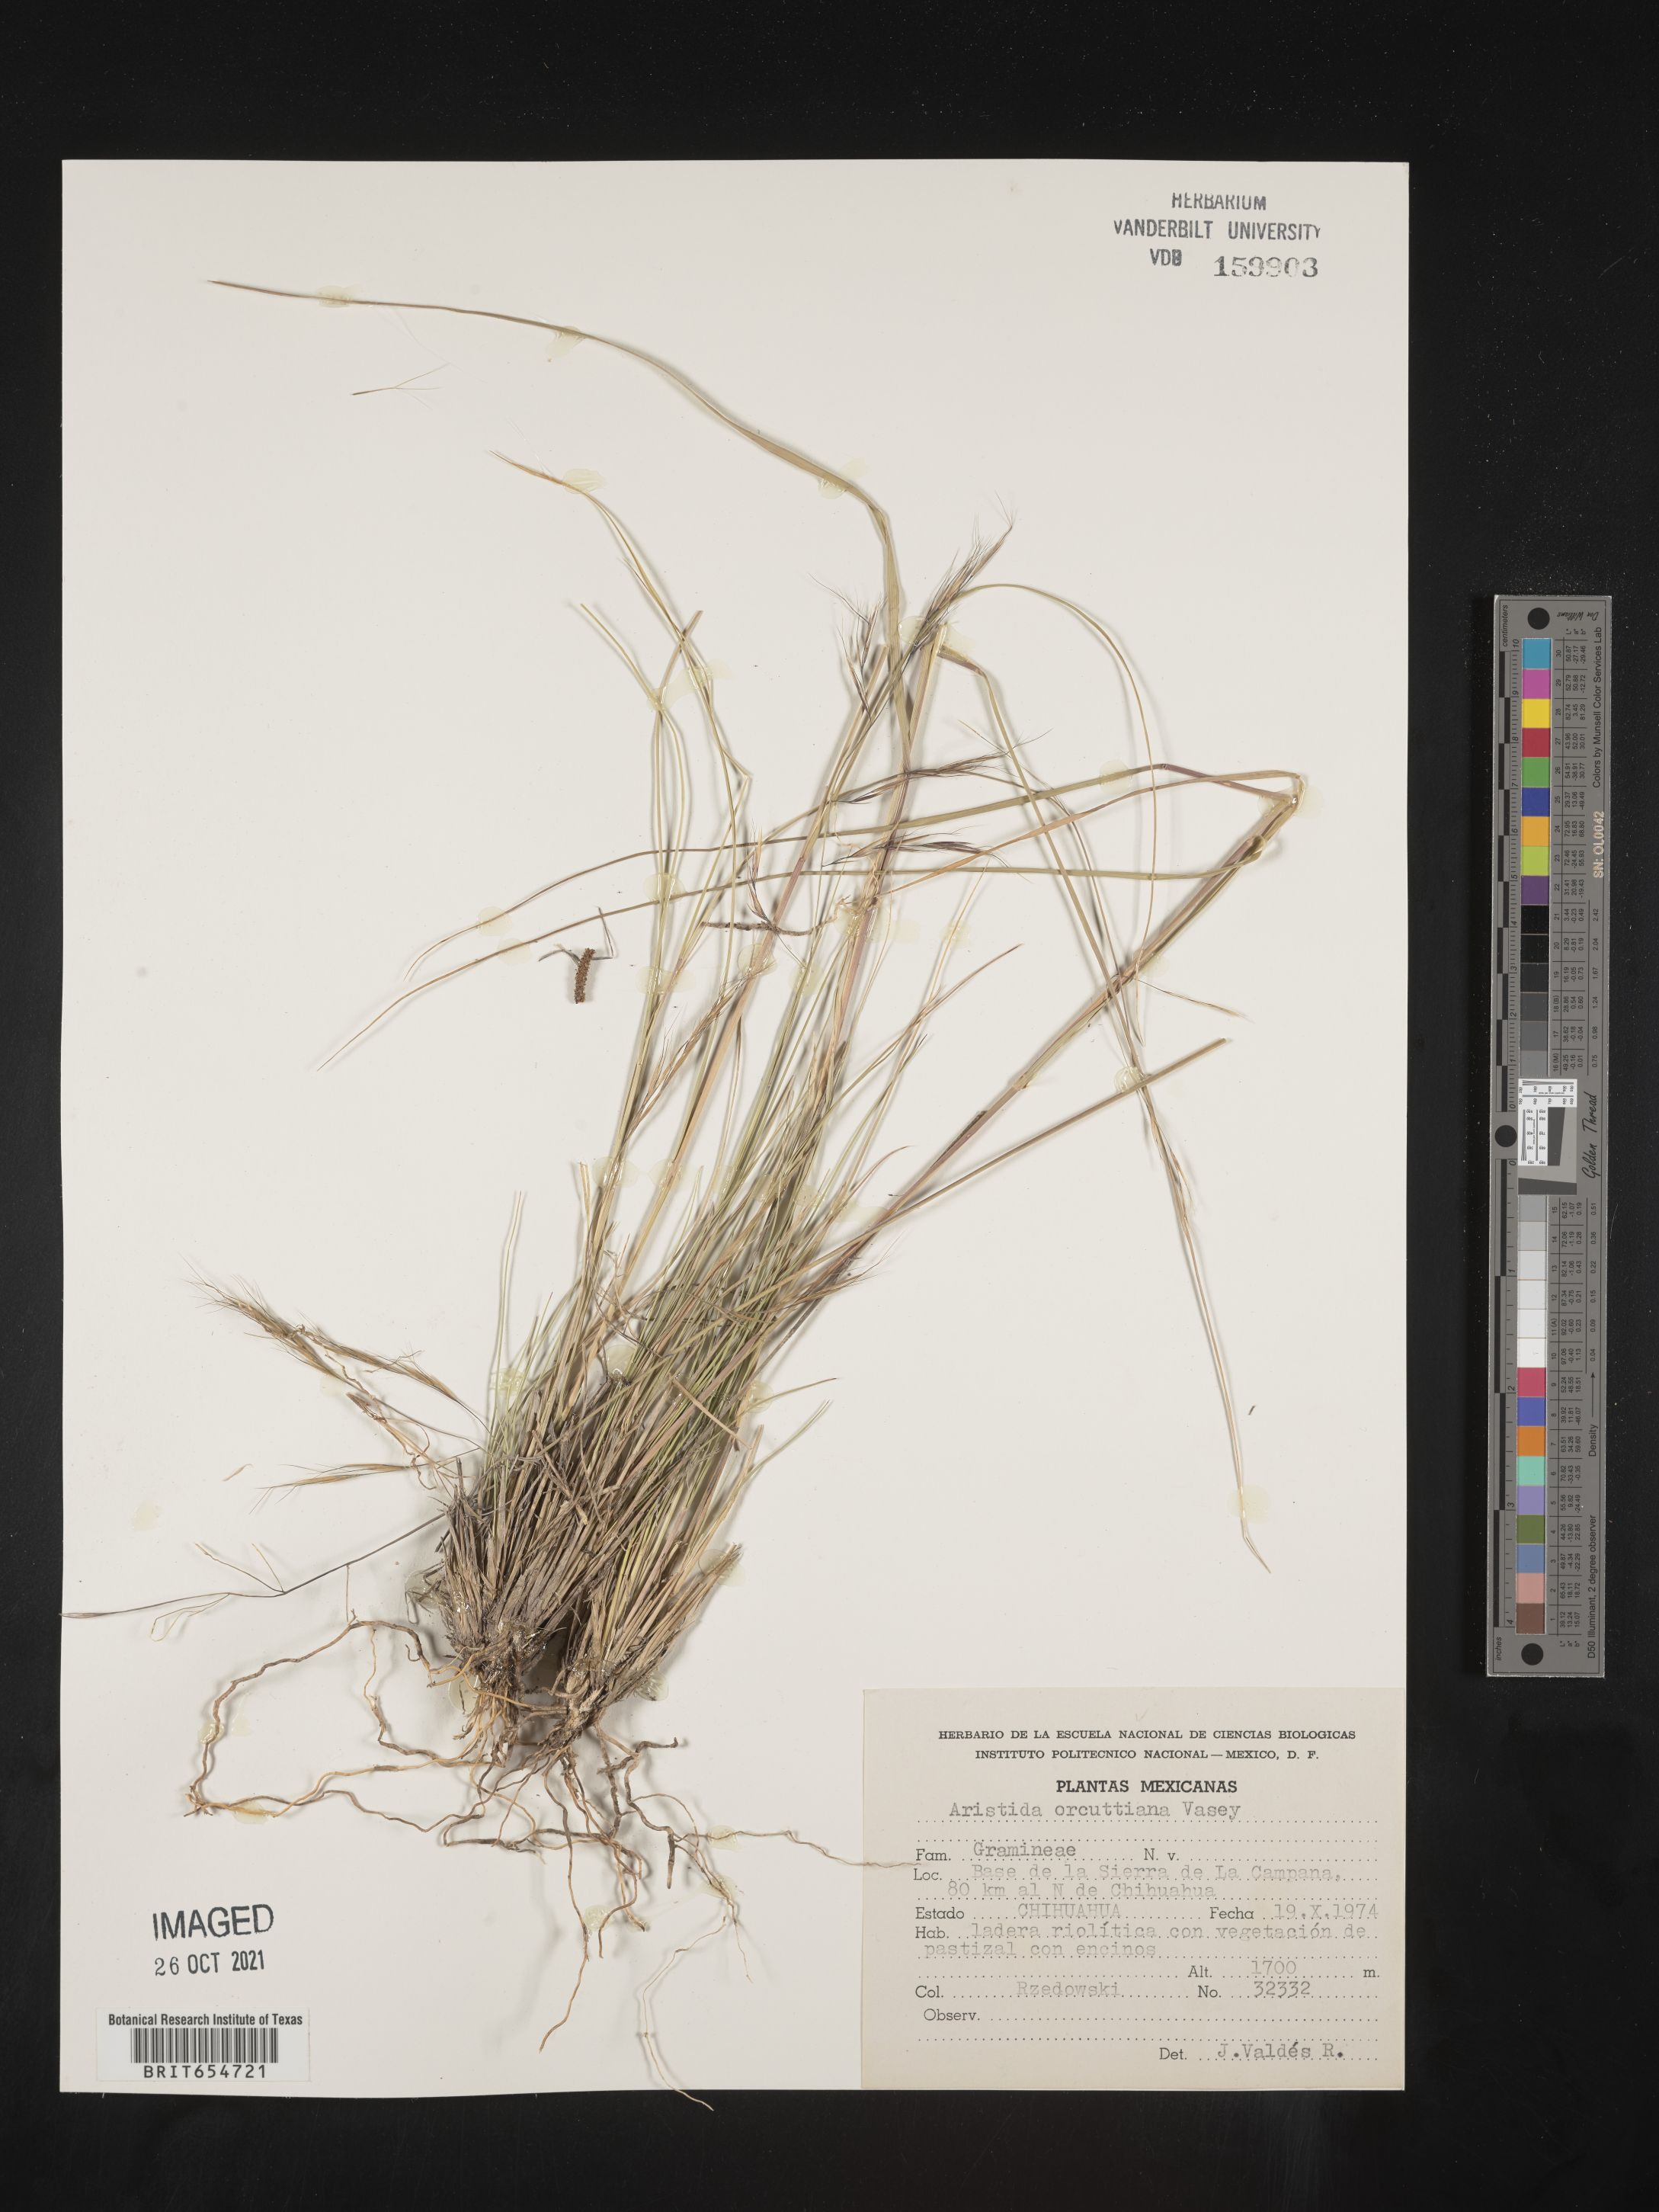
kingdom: Plantae
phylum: Tracheophyta
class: Liliopsida
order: Poales
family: Poaceae
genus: Aristida
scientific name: Aristida
